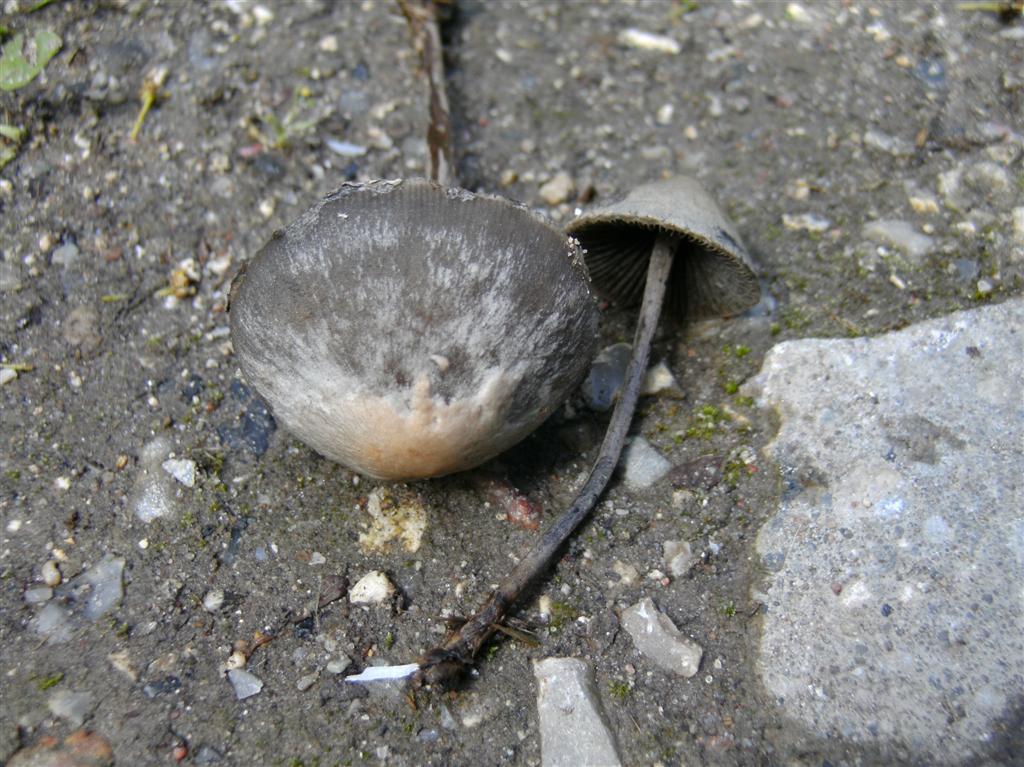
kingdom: Fungi
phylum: Basidiomycota
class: Agaricomycetes
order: Agaricales
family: Bolbitiaceae
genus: Panaeolus
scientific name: Panaeolus papilionaceus
